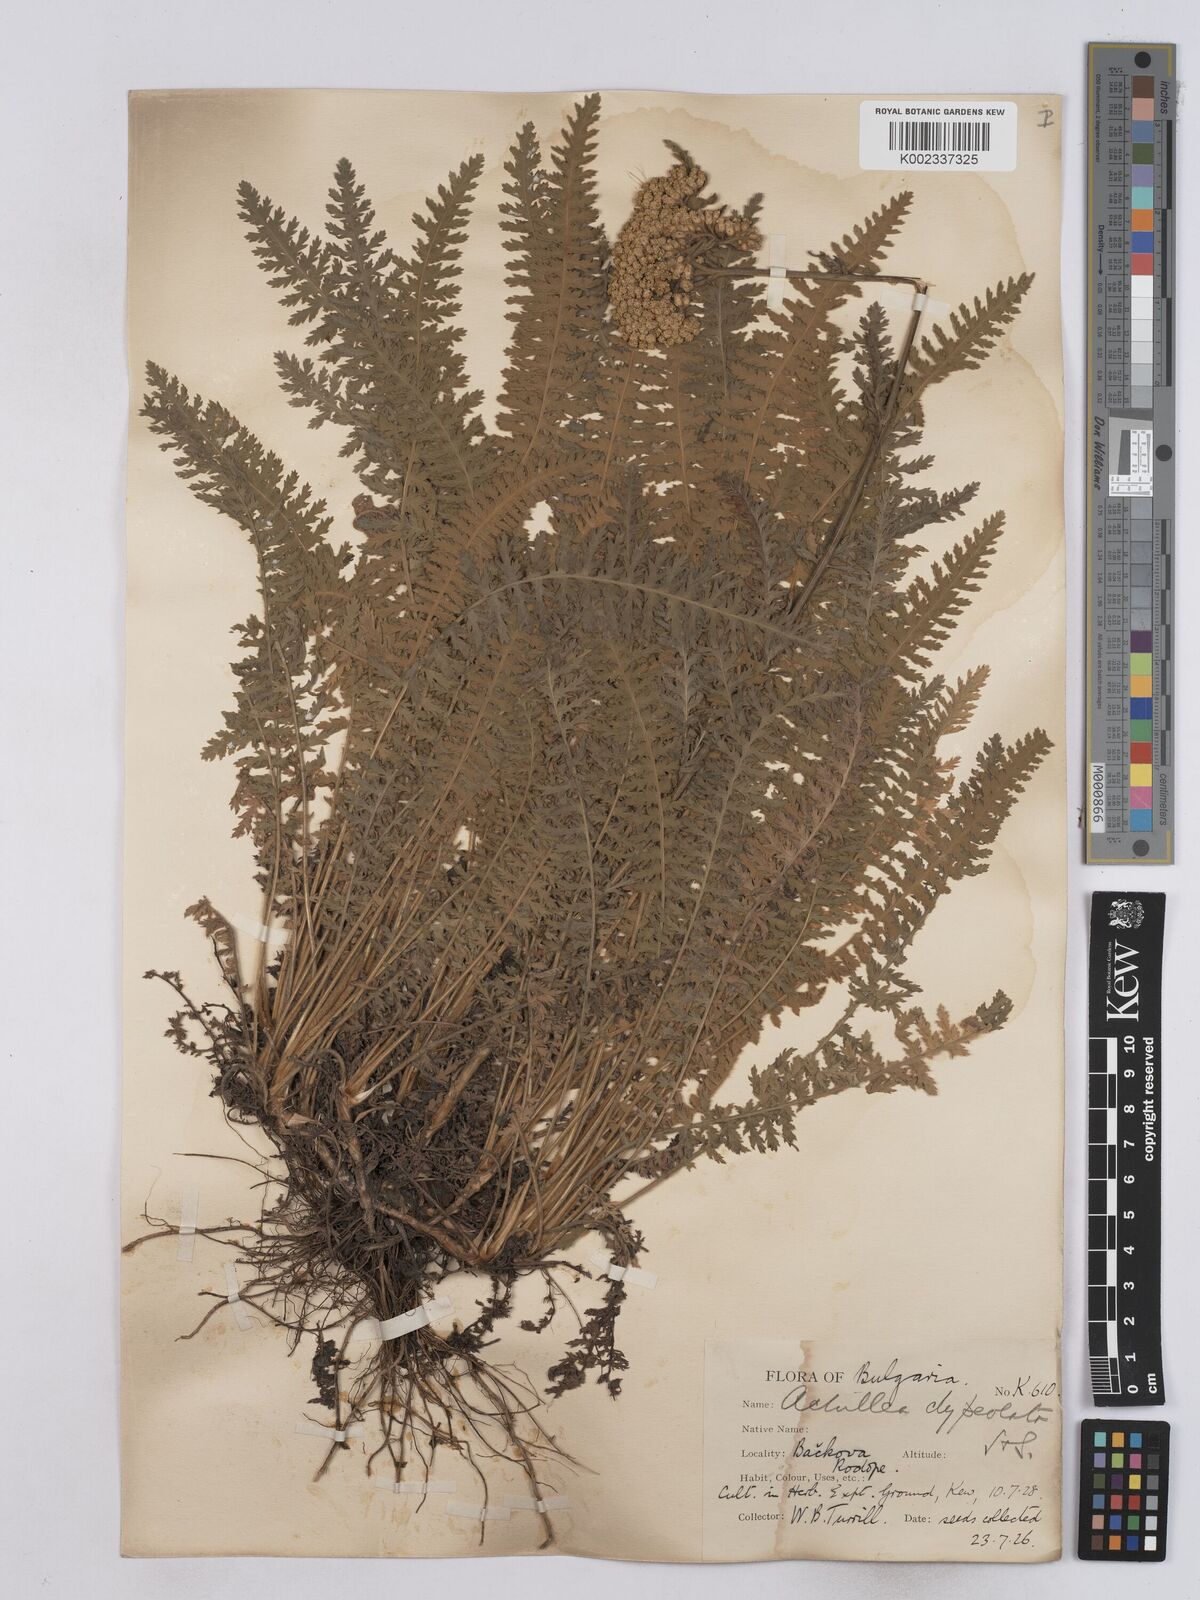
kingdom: Plantae
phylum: Tracheophyta
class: Magnoliopsida
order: Asterales
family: Asteraceae
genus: Achillea
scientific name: Achillea clypeolata
